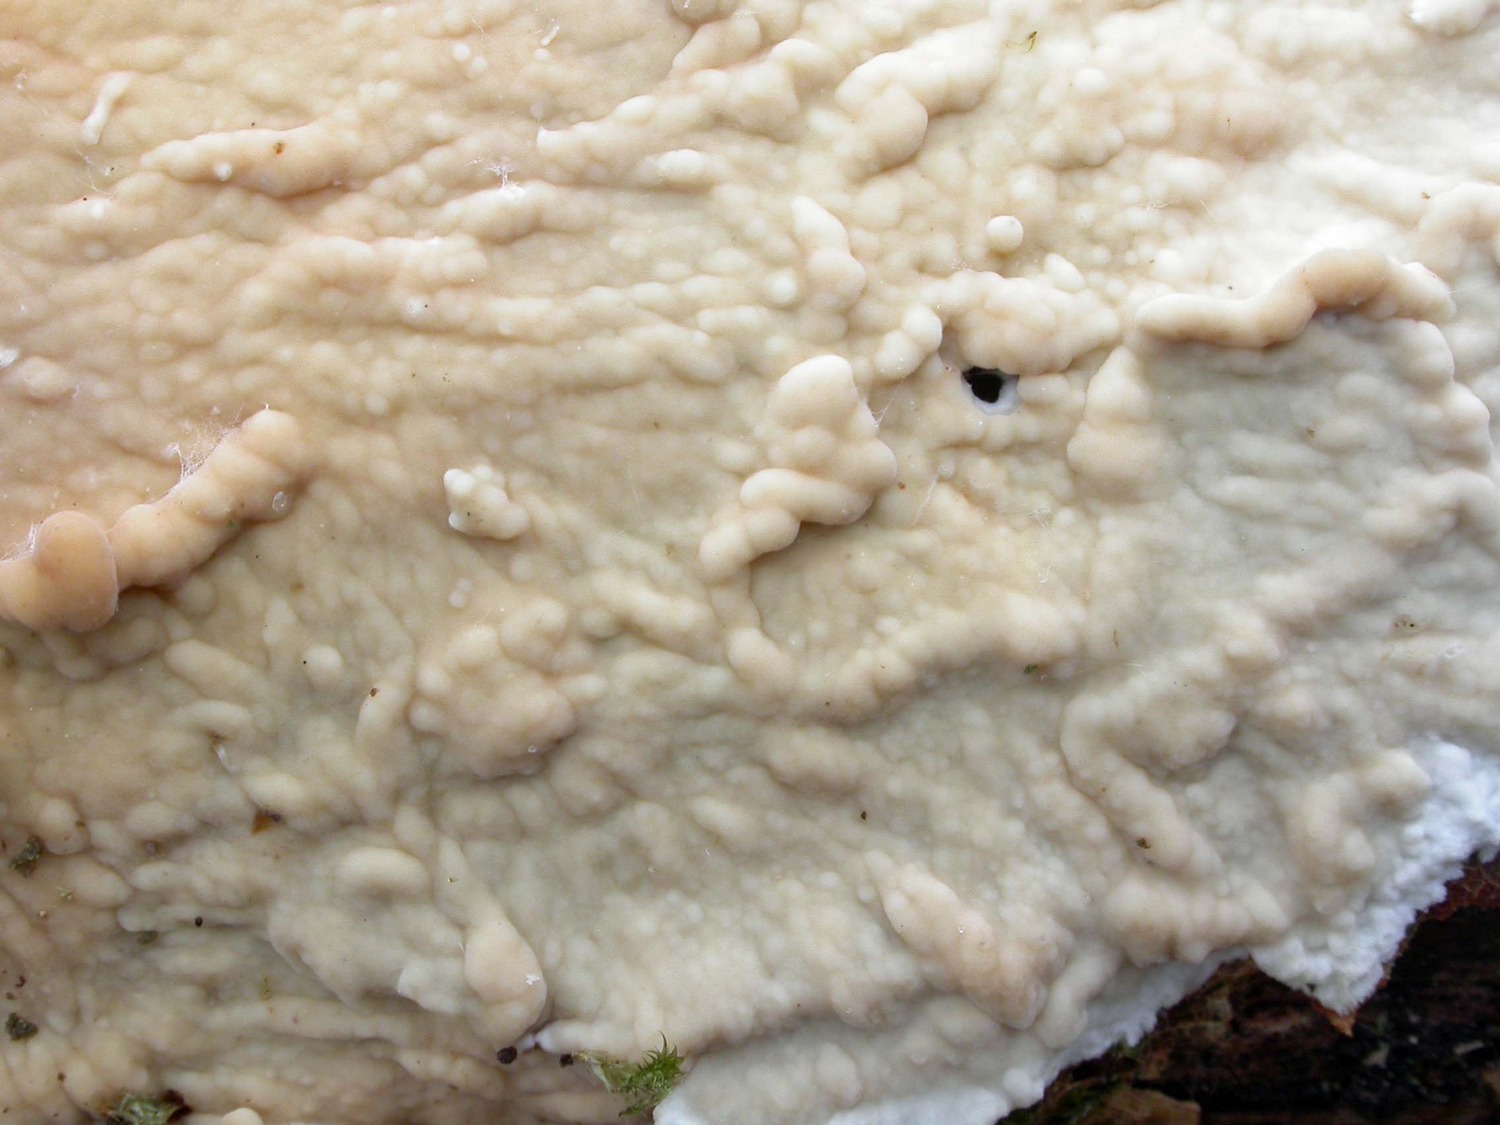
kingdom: Fungi
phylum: Basidiomycota
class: Agaricomycetes
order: Polyporales
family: Phanerochaetaceae
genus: Phanerochaete
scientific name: Phanerochaete laevis
